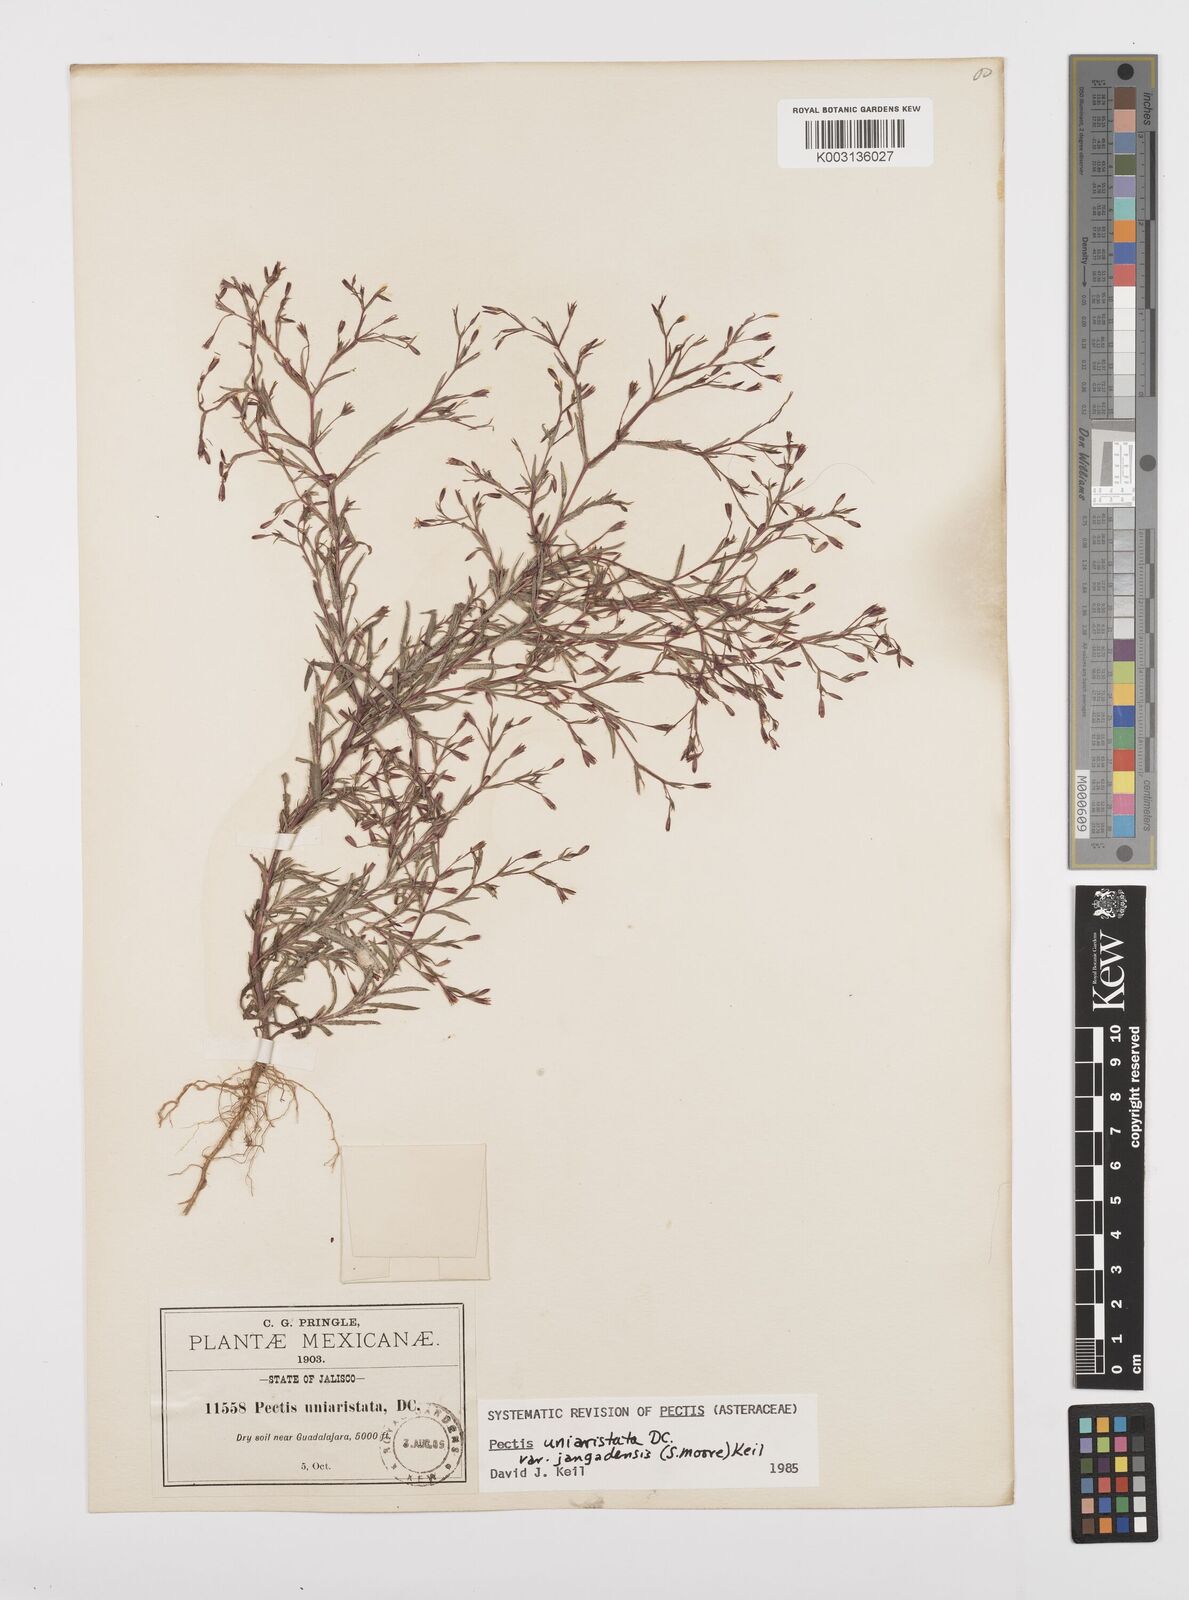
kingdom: Plantae
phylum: Tracheophyta
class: Magnoliopsida
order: Asterales
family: Asteraceae
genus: Pectis
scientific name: Pectis uniaristata
